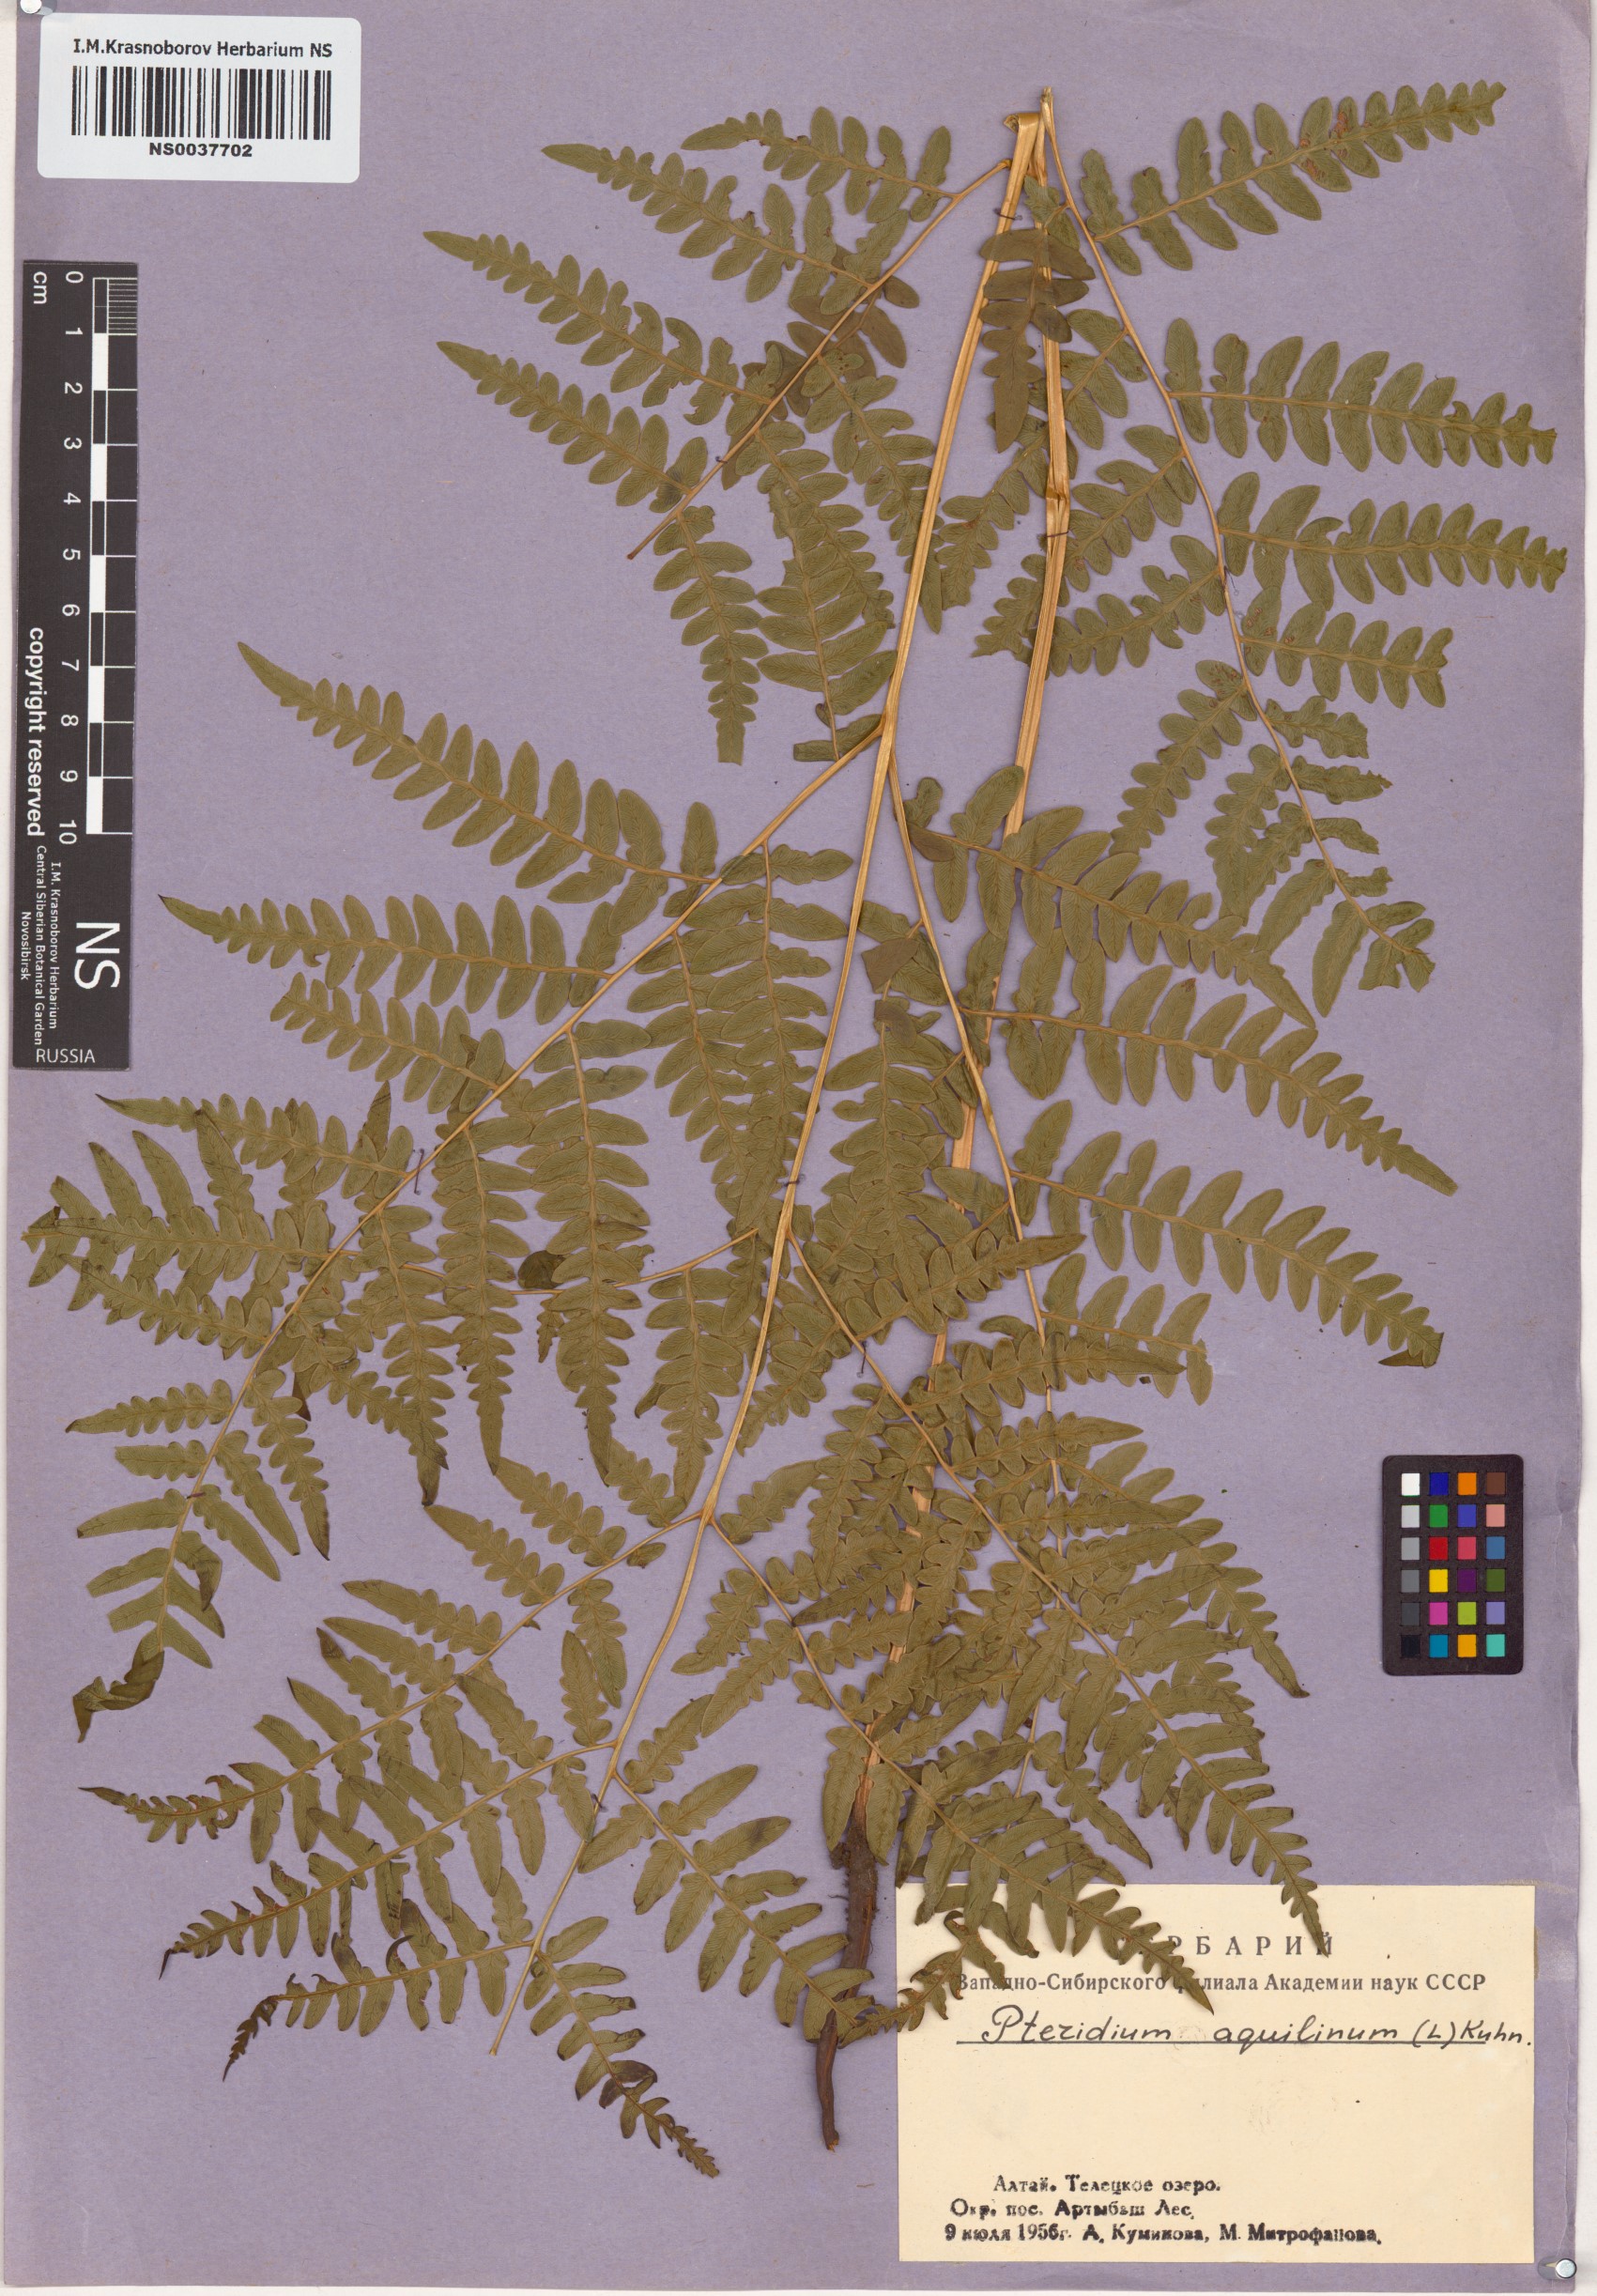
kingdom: Plantae
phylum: Tracheophyta
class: Polypodiopsida
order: Polypodiales
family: Dennstaedtiaceae
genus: Pteridium
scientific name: Pteridium aquilinum
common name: Bracken
